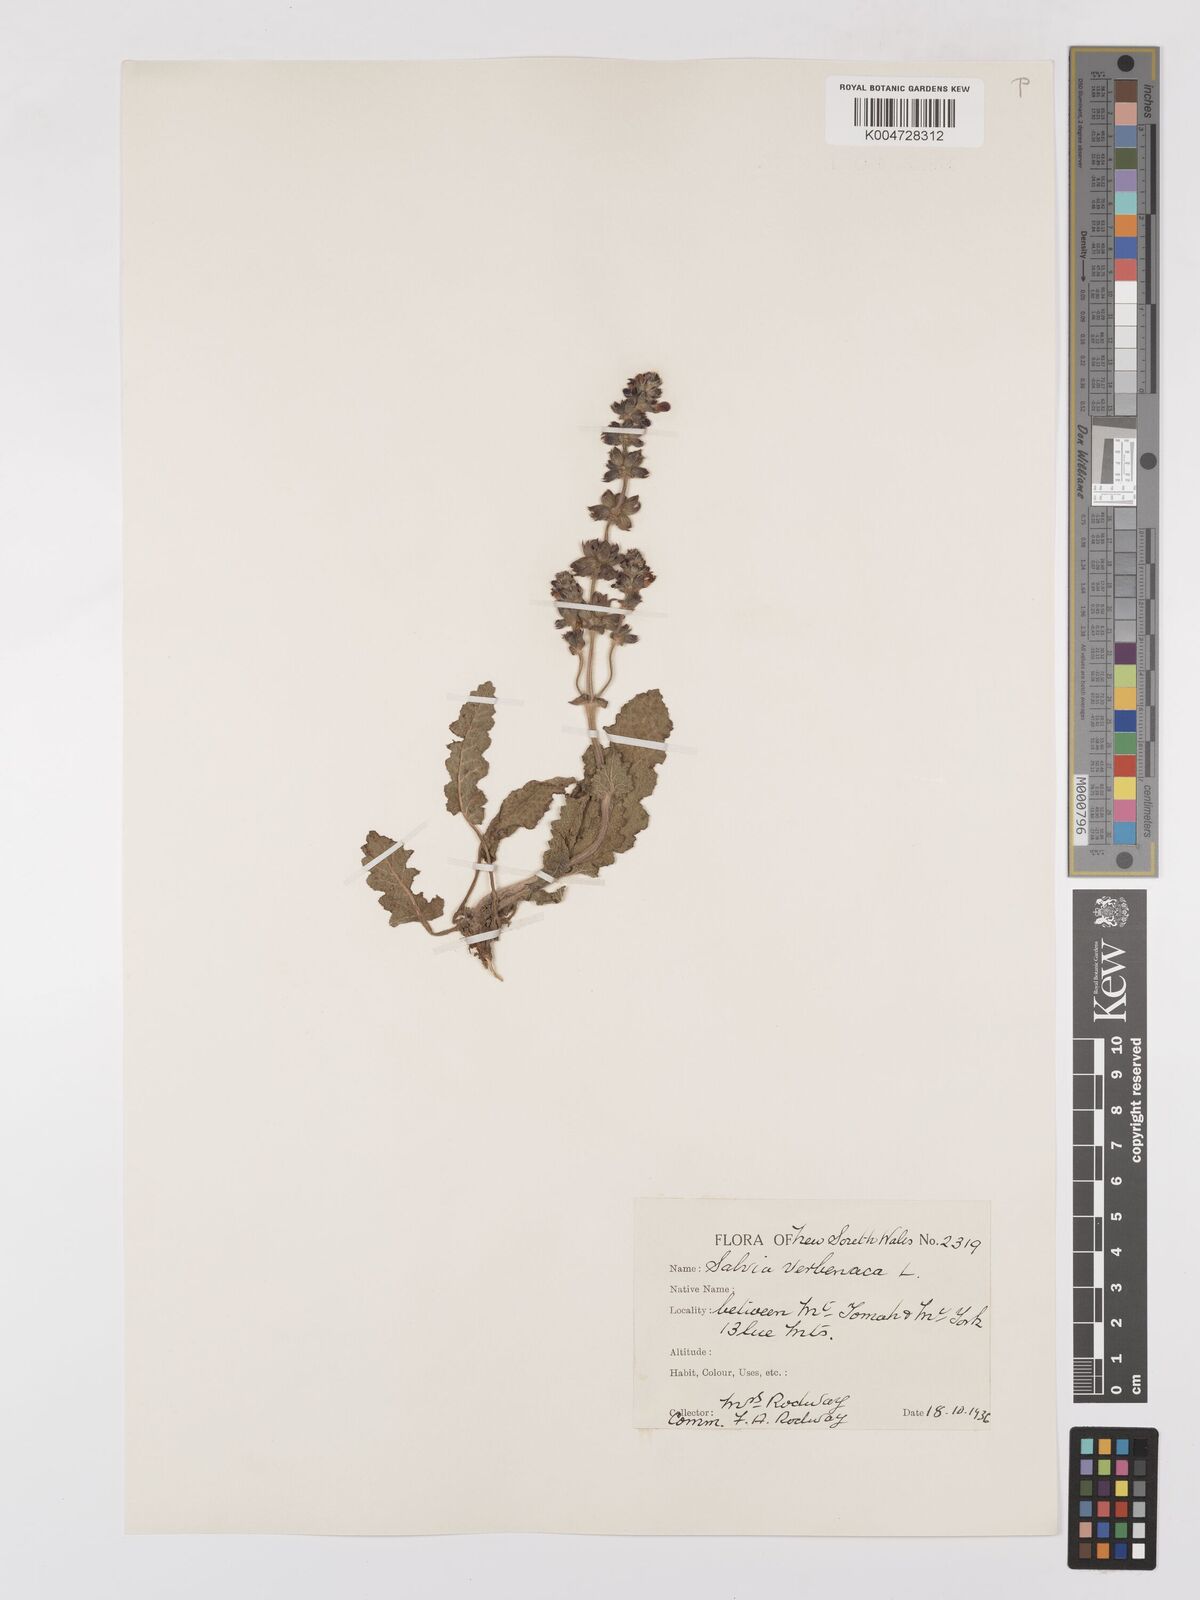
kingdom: Plantae
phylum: Tracheophyta
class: Magnoliopsida
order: Lamiales
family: Lamiaceae
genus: Salvia
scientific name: Salvia verbenaca
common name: Wild clary
